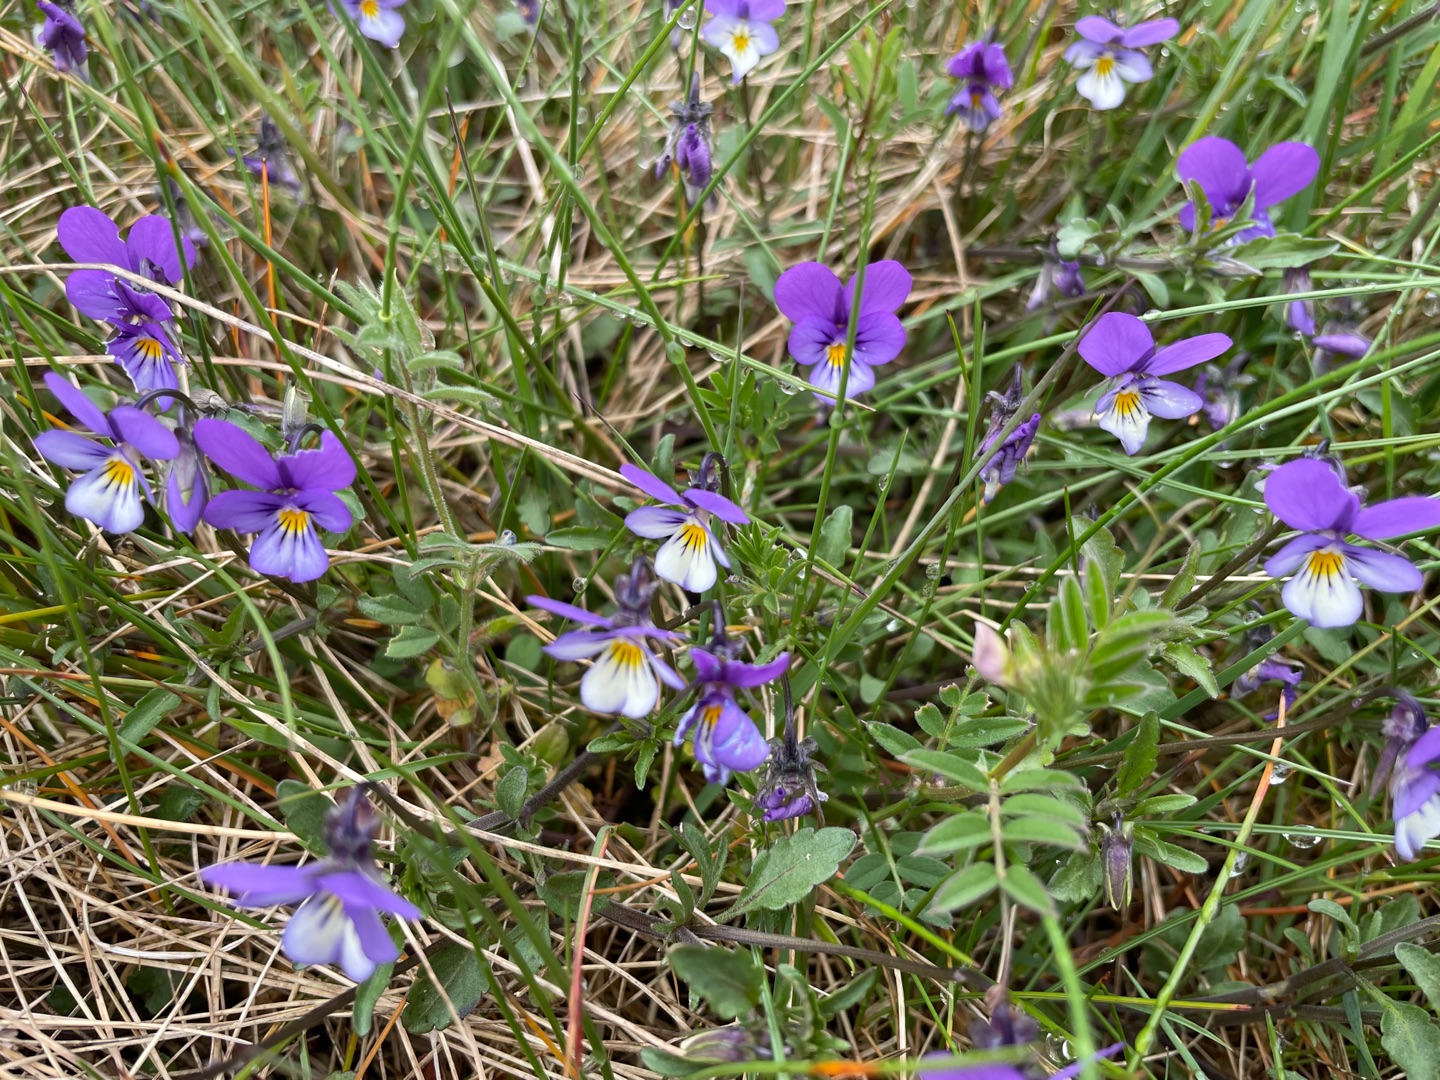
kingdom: Plantae
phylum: Tracheophyta
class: Magnoliopsida
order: Malpighiales
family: Violaceae
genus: Viola
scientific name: Viola tricolor
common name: Stedmoderblomst
